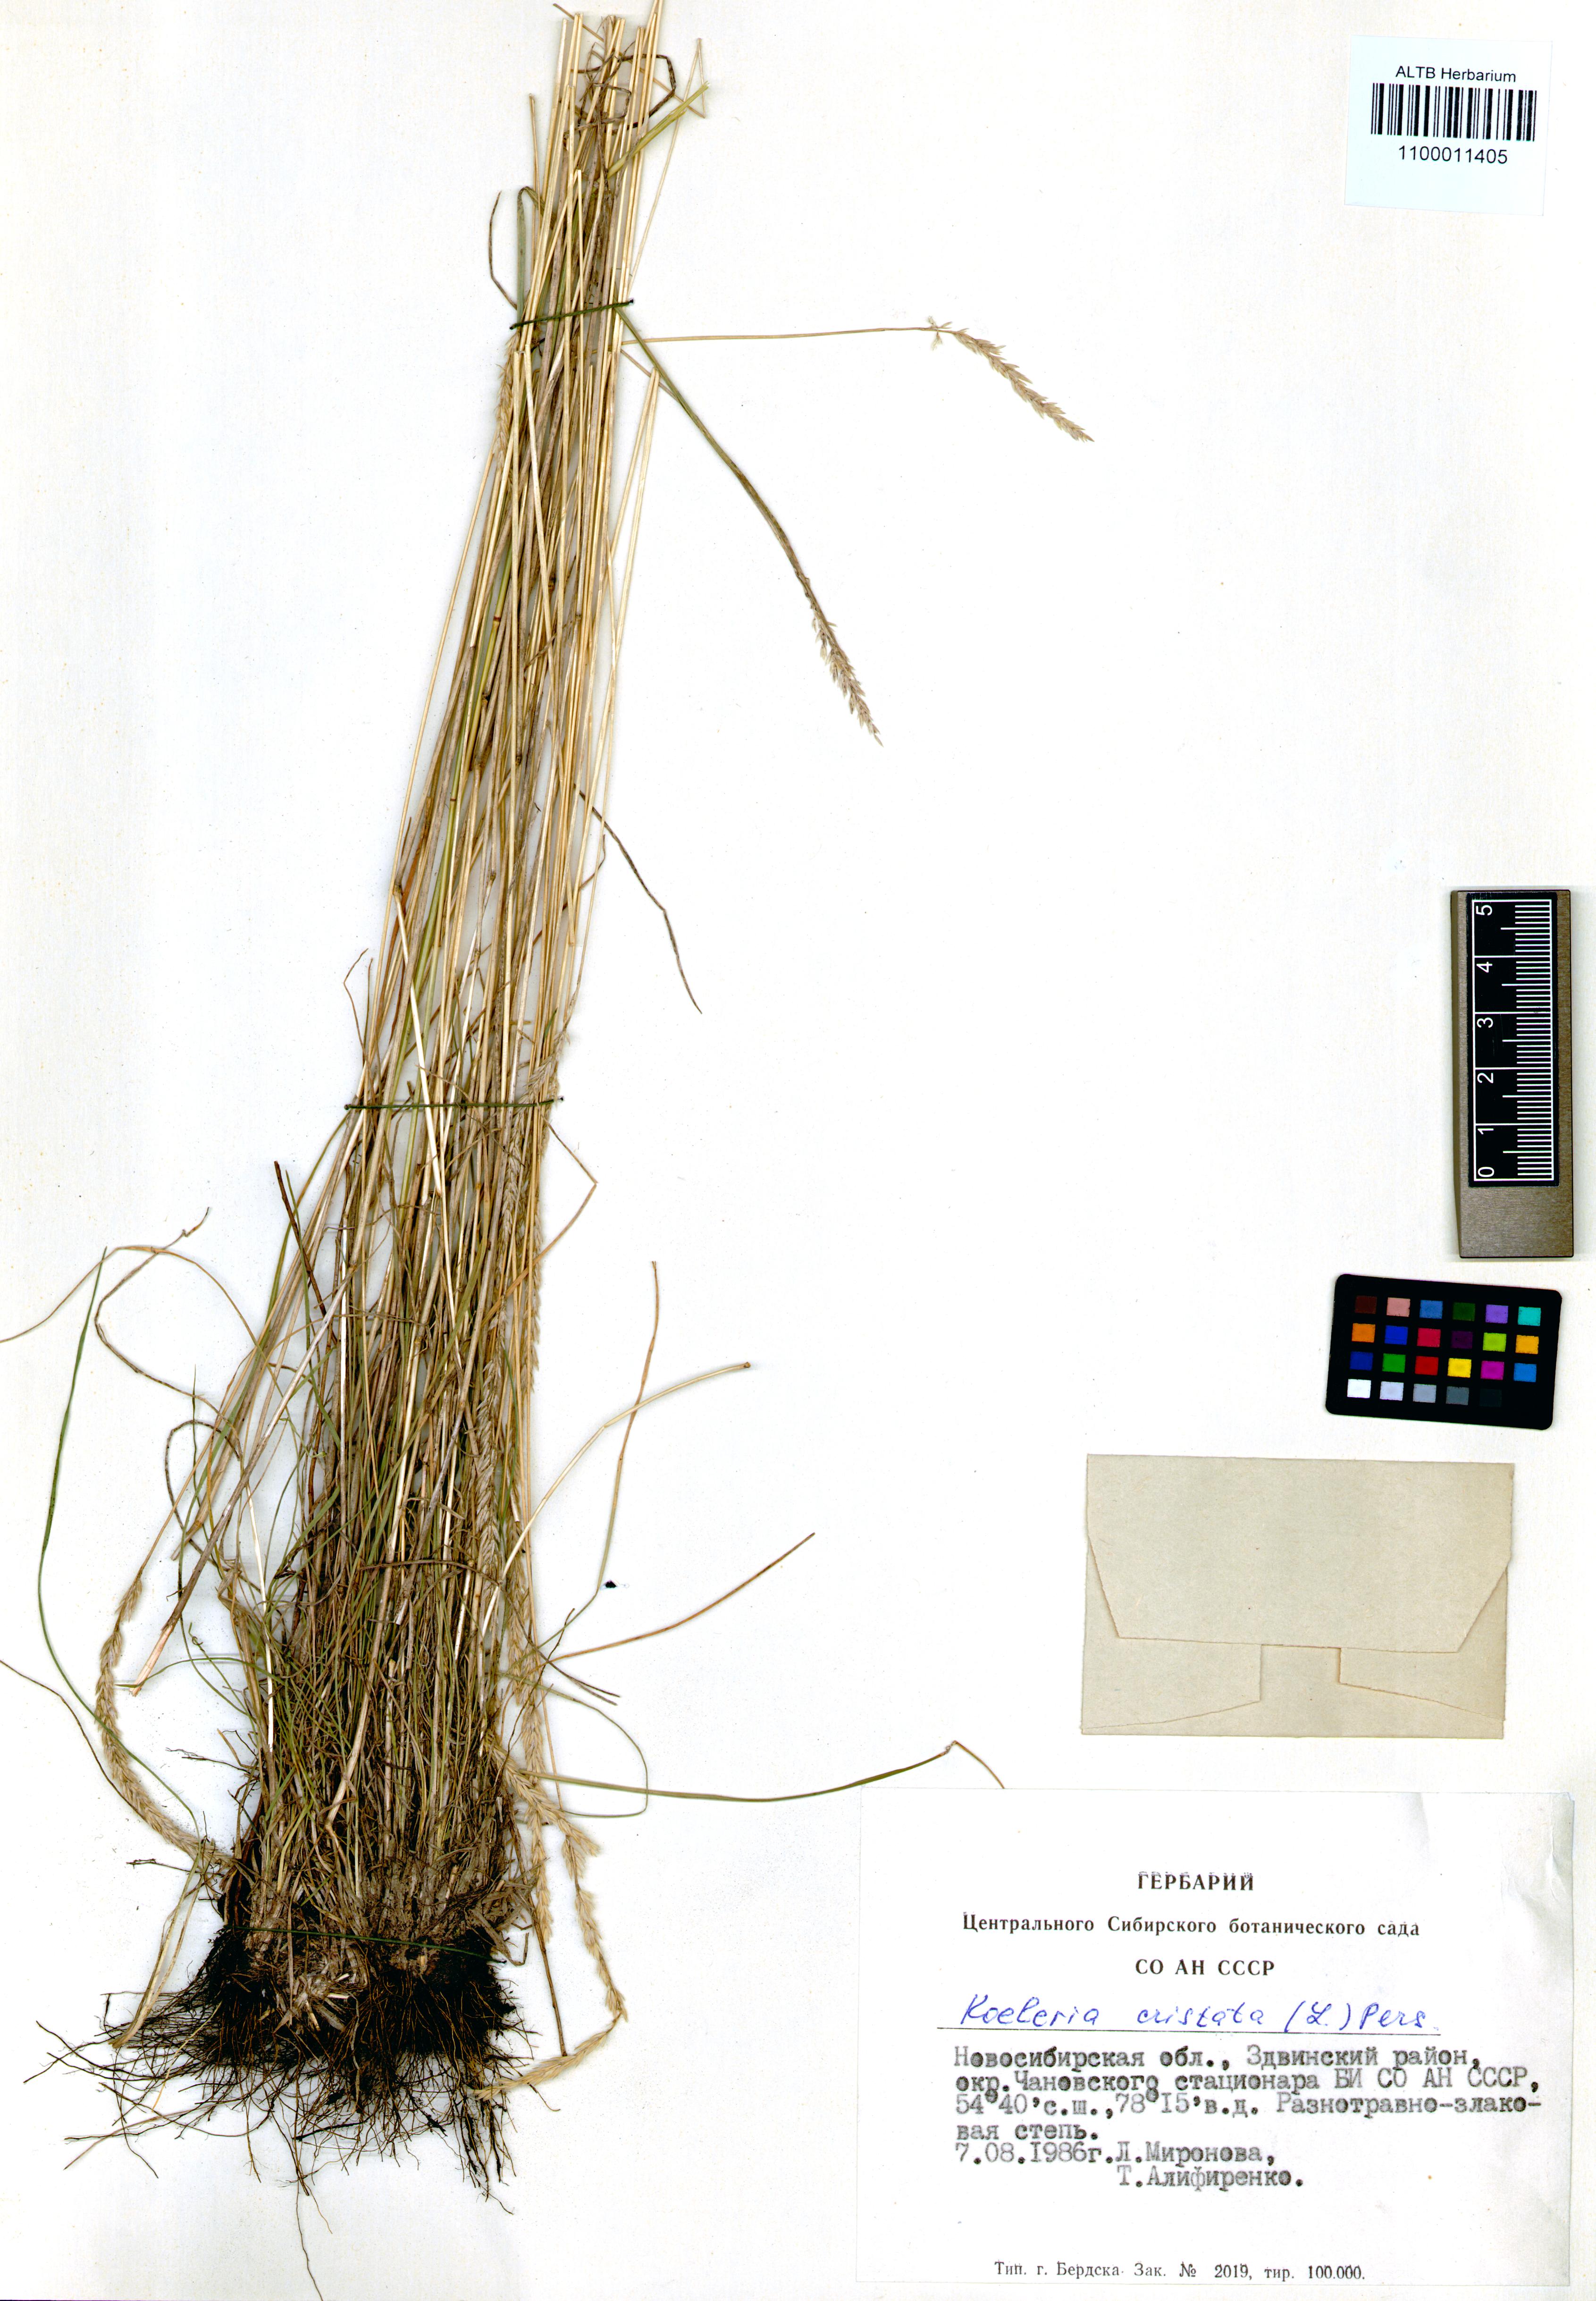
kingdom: Plantae
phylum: Tracheophyta
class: Liliopsida
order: Poales
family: Poaceae
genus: Koeleria
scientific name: Koeleria pyramidata
